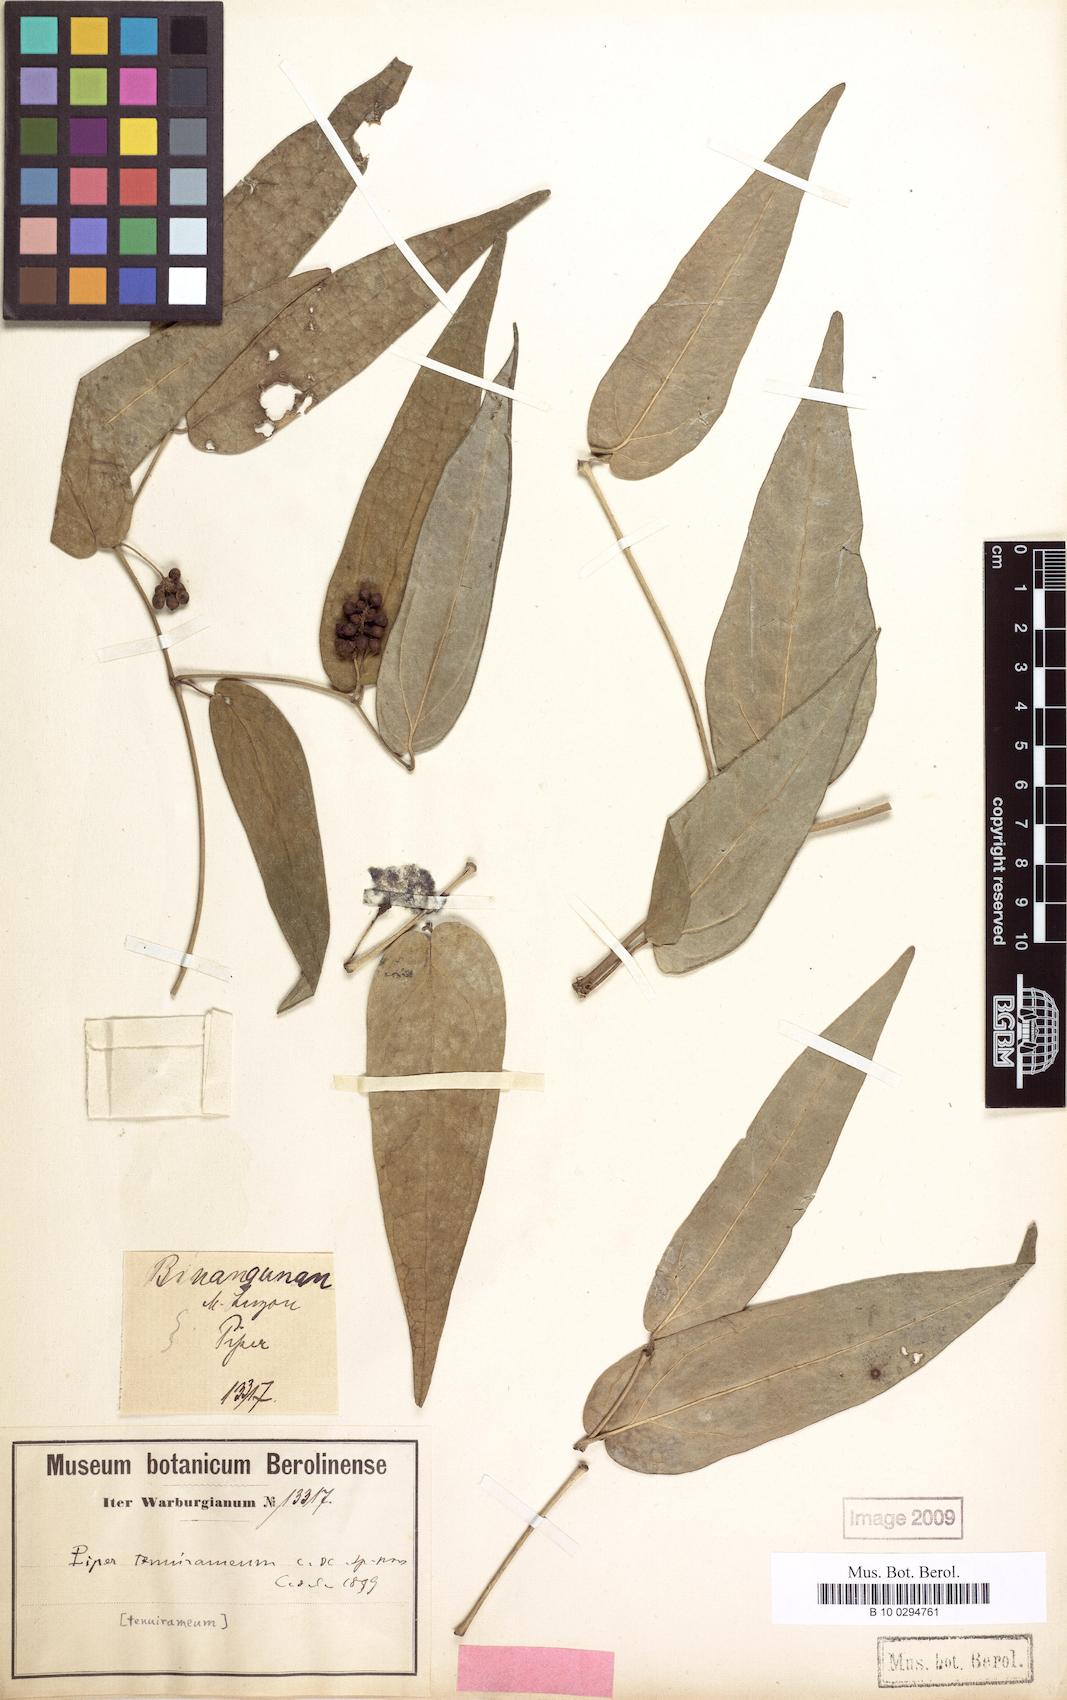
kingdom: Plantae
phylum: Tracheophyta
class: Magnoliopsida
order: Piperales
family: Piperaceae
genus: Piper
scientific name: Piper lanatum
